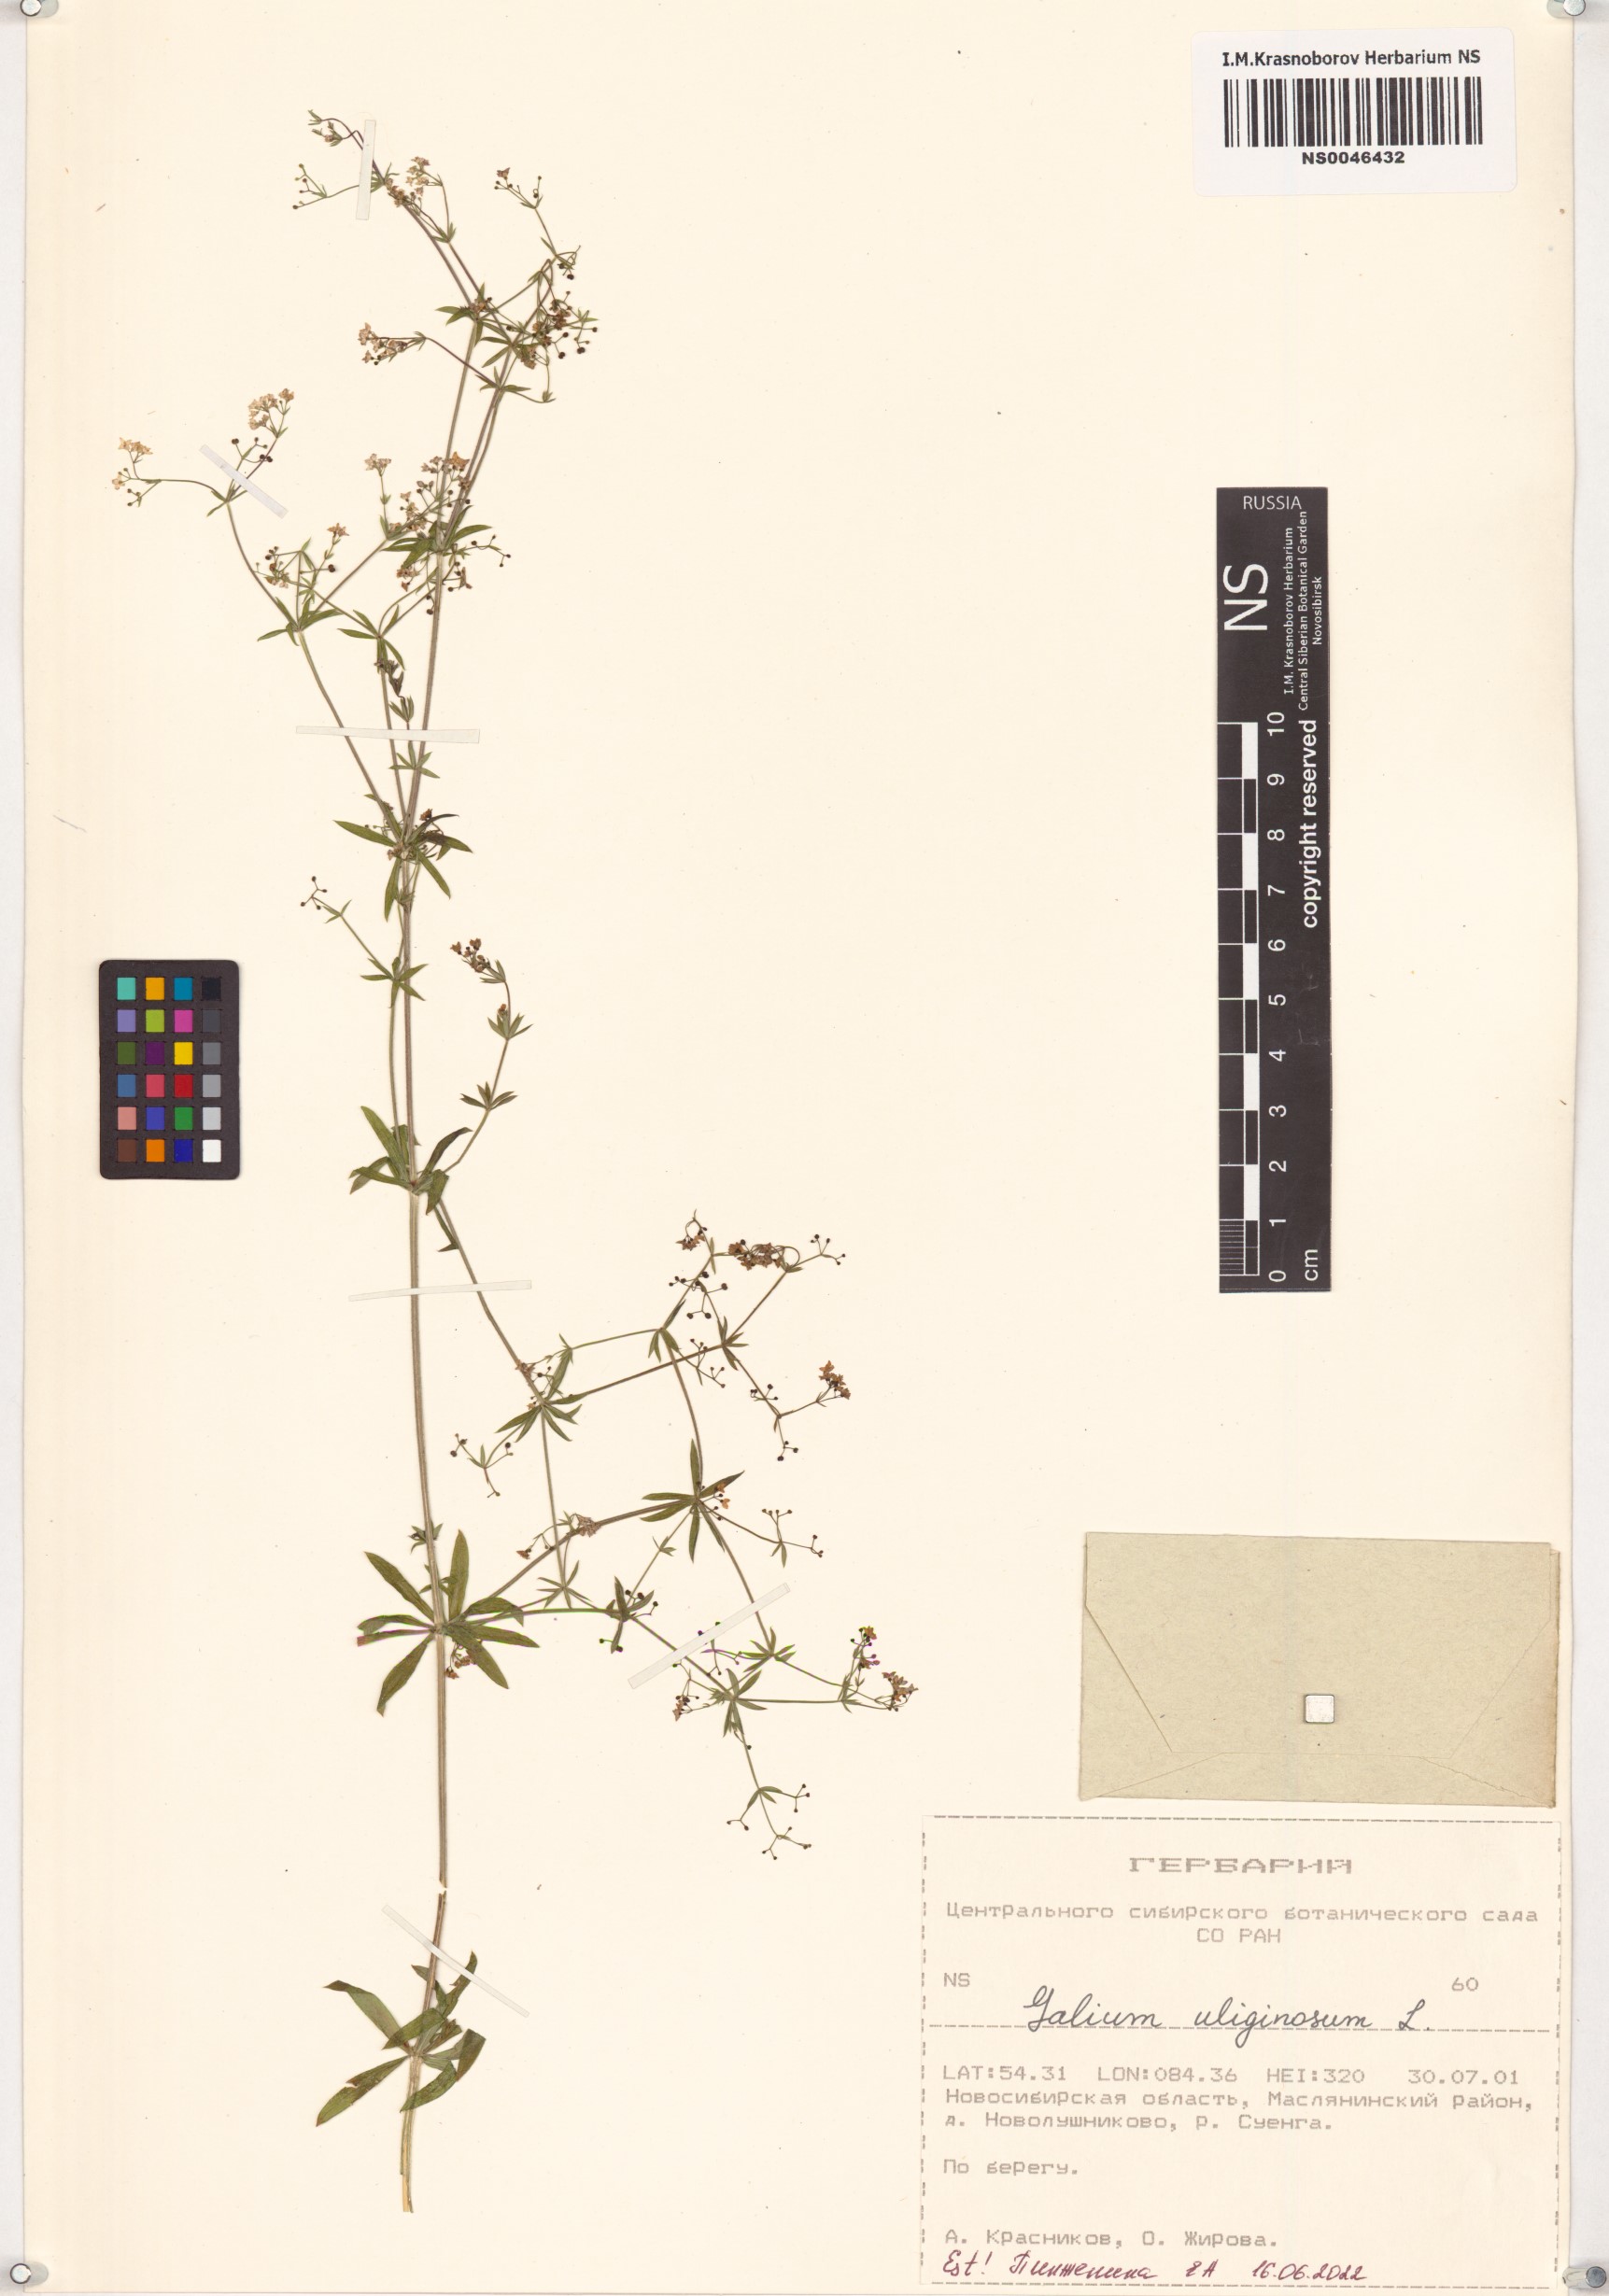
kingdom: Plantae
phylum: Tracheophyta
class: Magnoliopsida
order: Gentianales
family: Rubiaceae
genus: Galium
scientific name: Galium uliginosum
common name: Fen bedstraw
